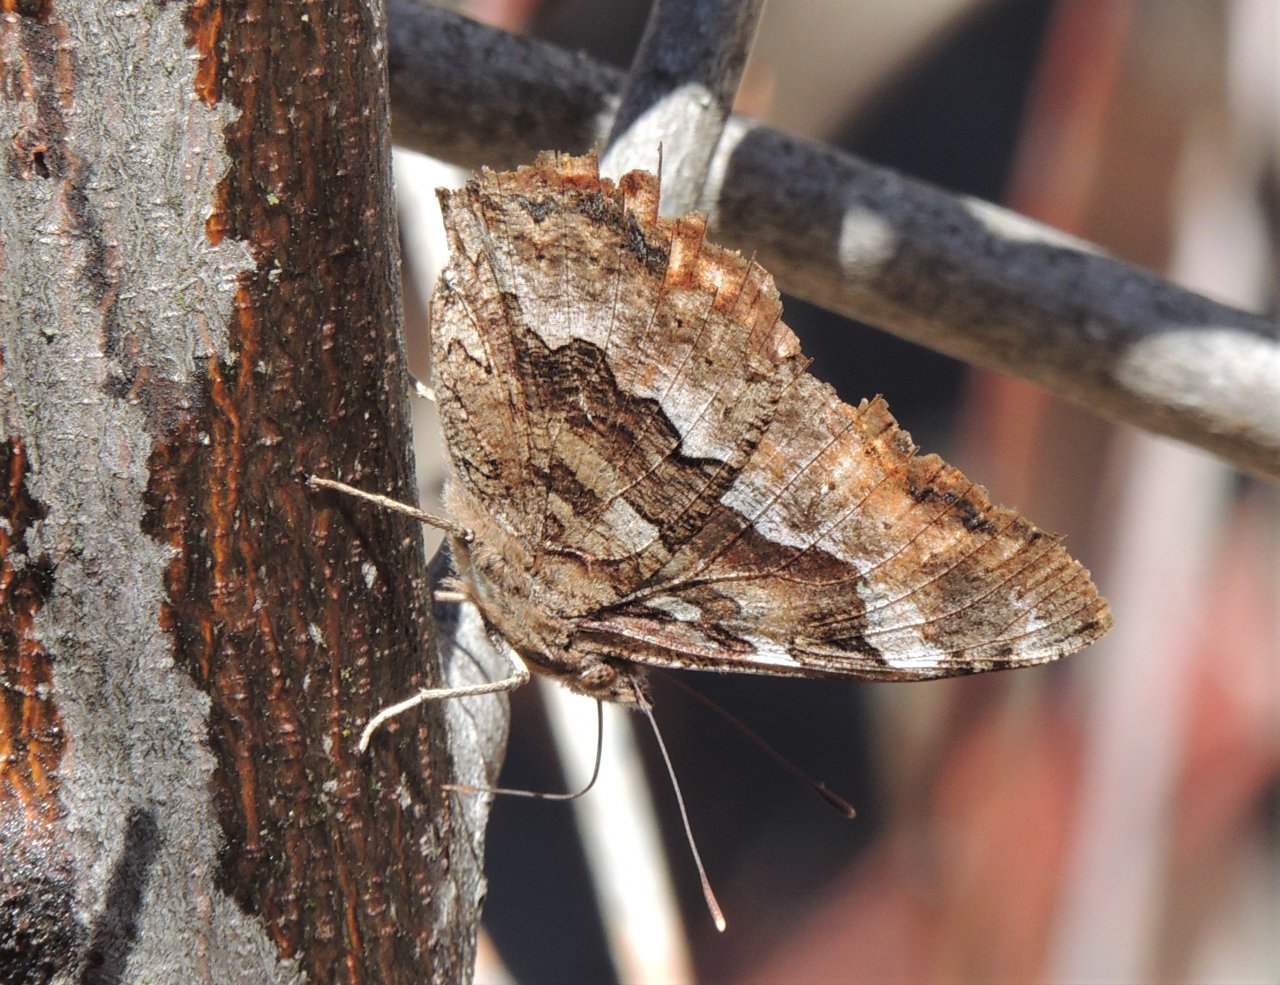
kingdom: Animalia
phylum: Arthropoda
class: Insecta
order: Lepidoptera
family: Nymphalidae
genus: Polygonia
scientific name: Polygonia vaualbum
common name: Compton Tortoiseshell
